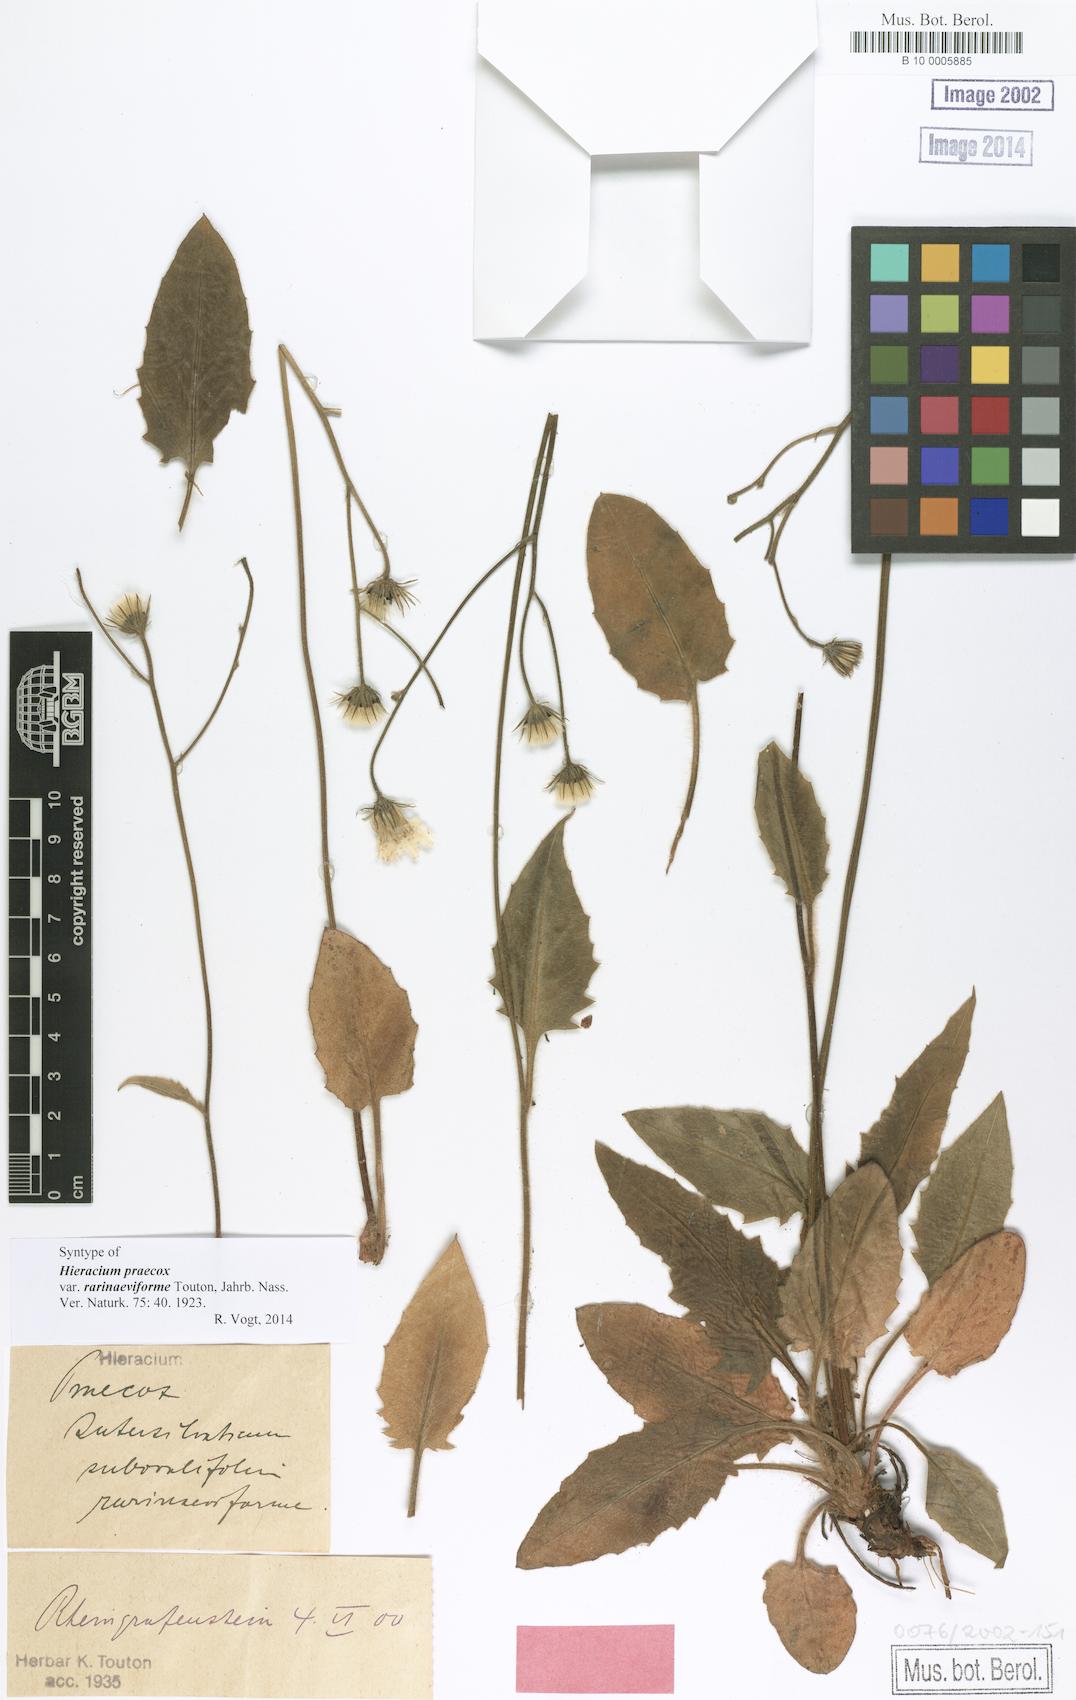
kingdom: Plantae
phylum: Tracheophyta
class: Magnoliopsida
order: Asterales
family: Asteraceae
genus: Hieracium
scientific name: Hieracium praecox
